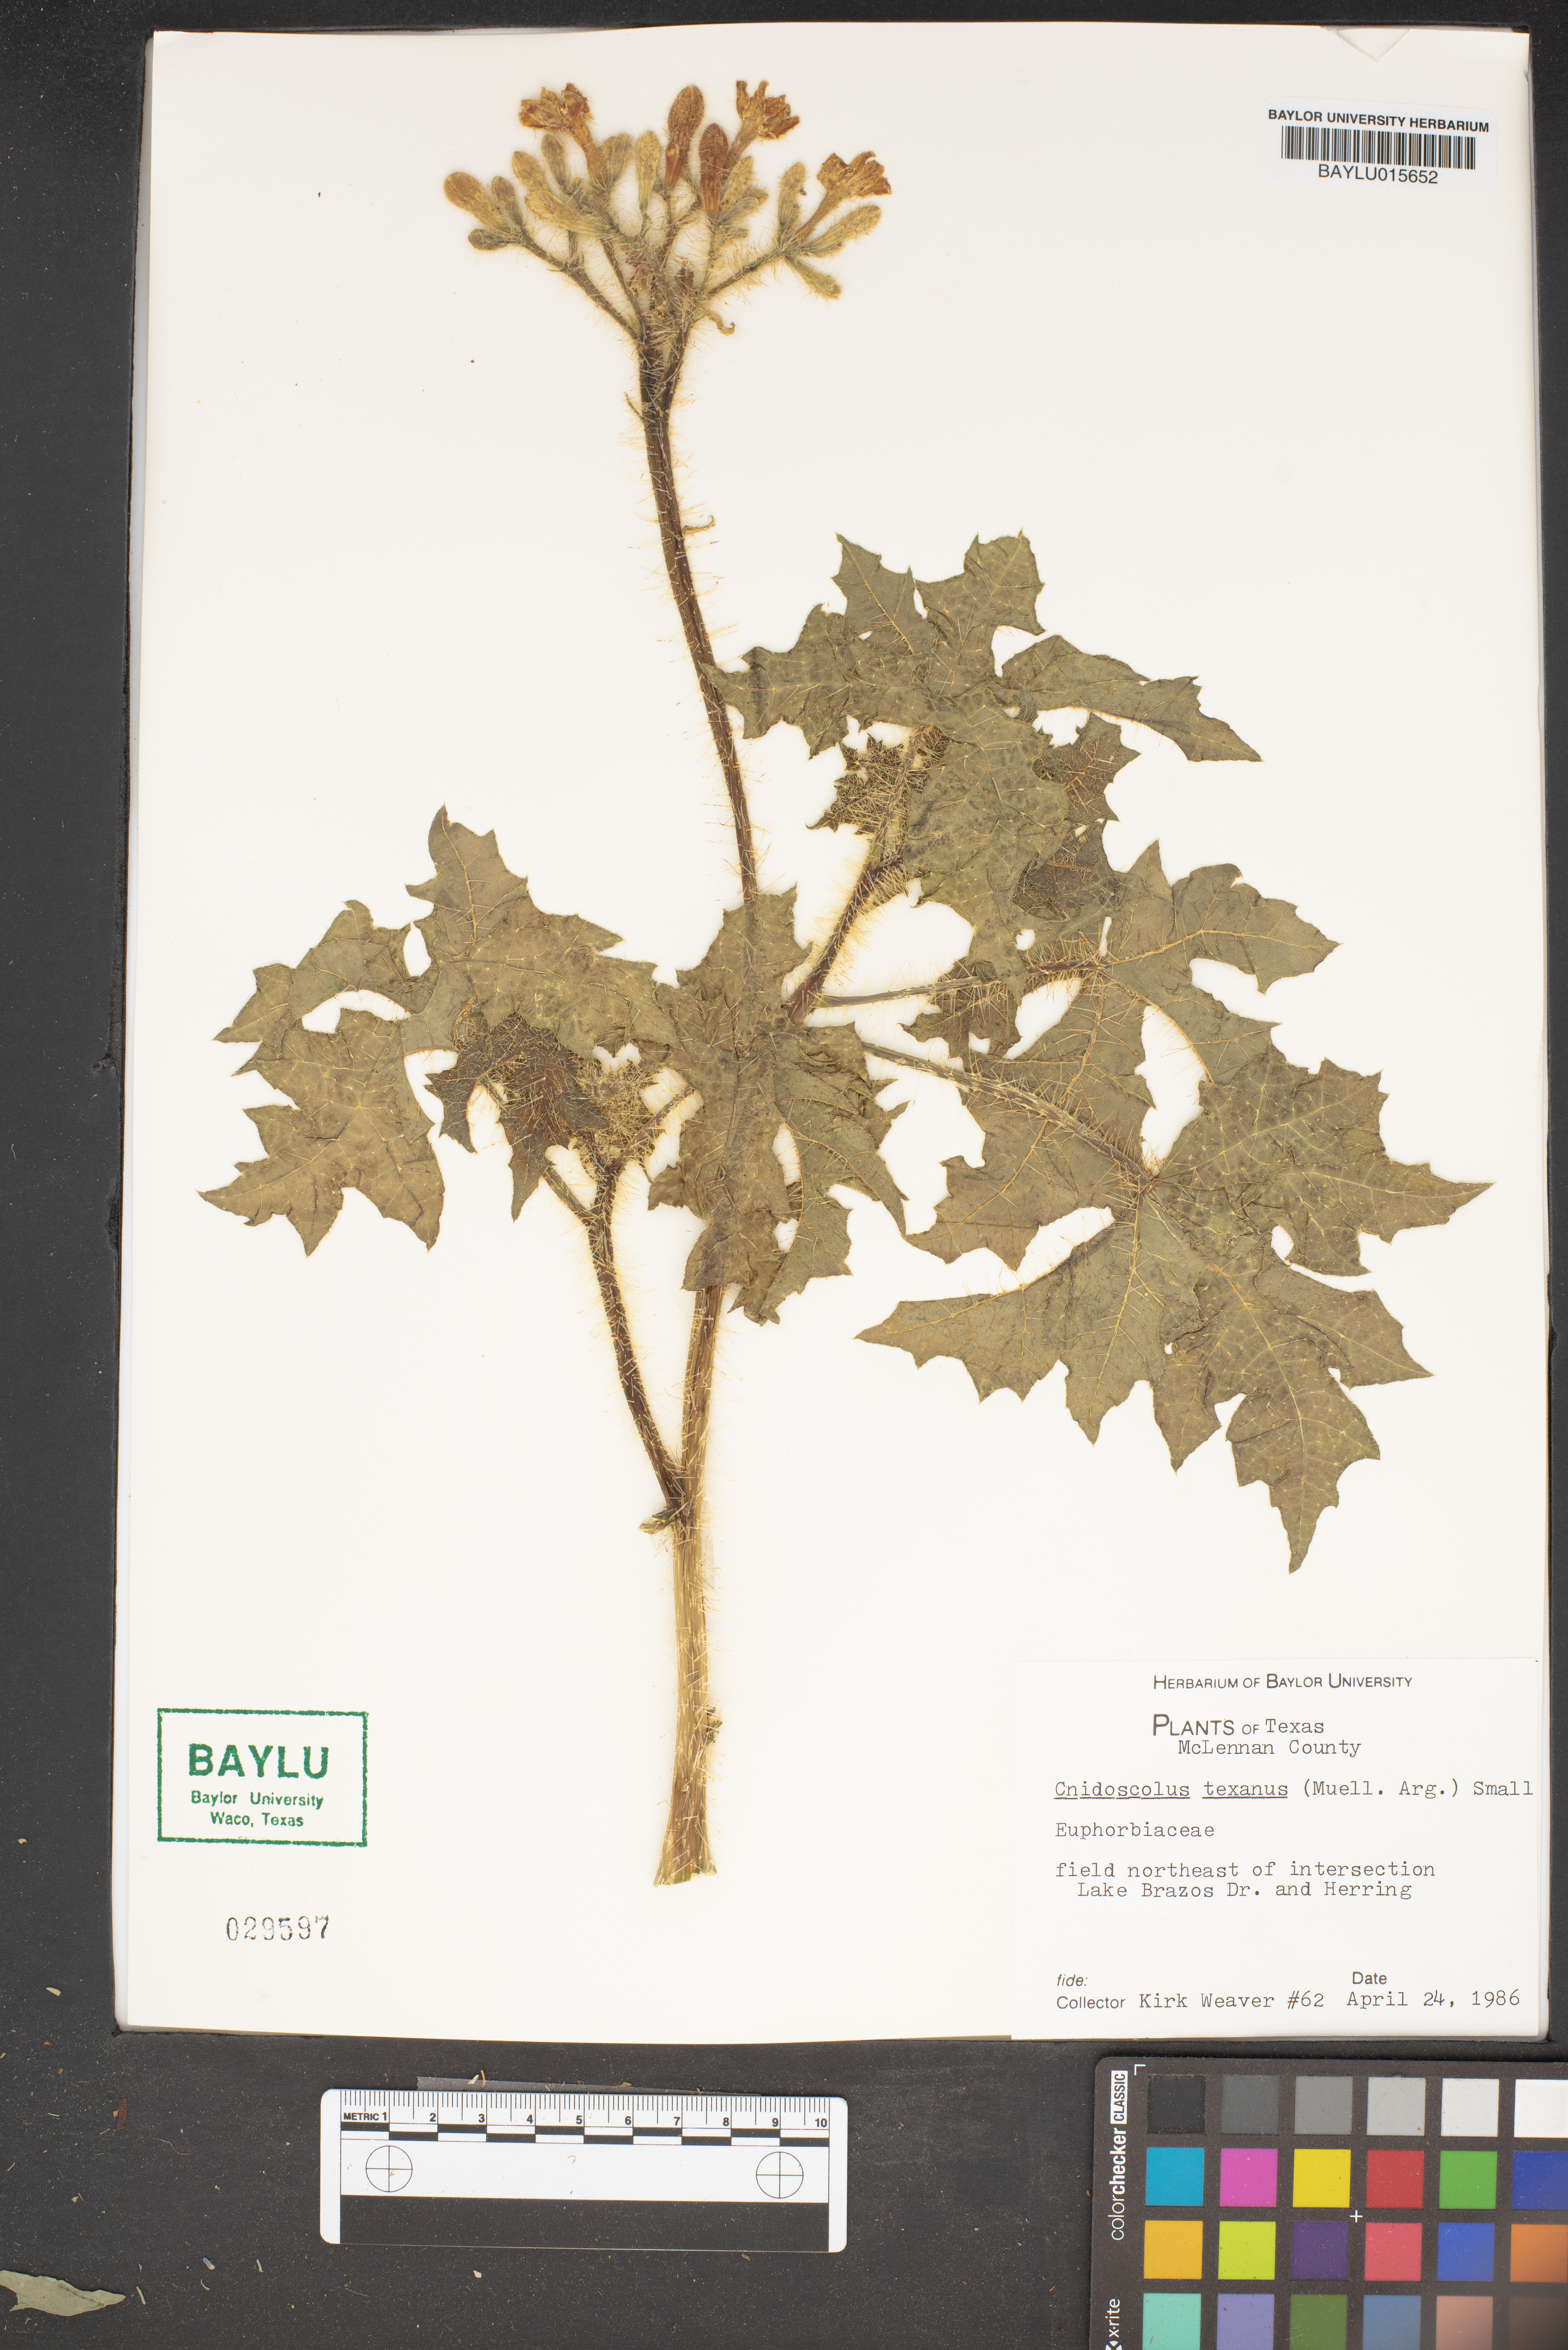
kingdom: Plantae
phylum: Tracheophyta
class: Magnoliopsida
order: Malpighiales
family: Euphorbiaceae
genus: Cnidoscolus
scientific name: Cnidoscolus texanus
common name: Texas bull-nettle
